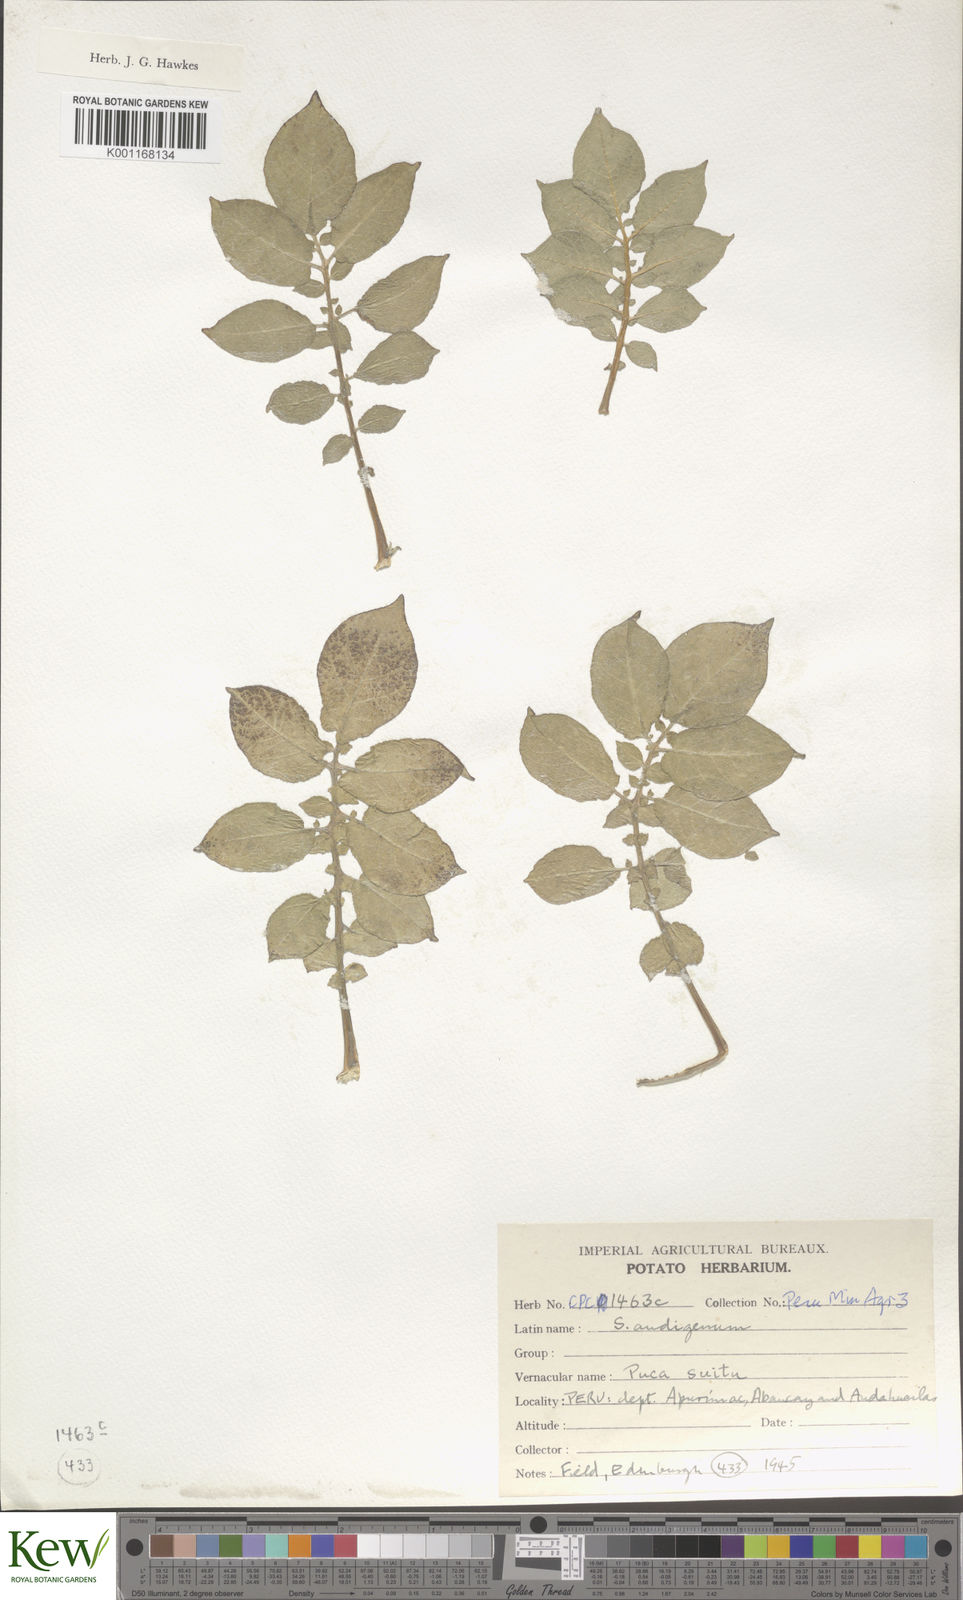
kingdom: Plantae
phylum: Tracheophyta
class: Magnoliopsida
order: Solanales
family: Solanaceae
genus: Solanum
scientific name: Solanum tuberosum
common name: Potato
